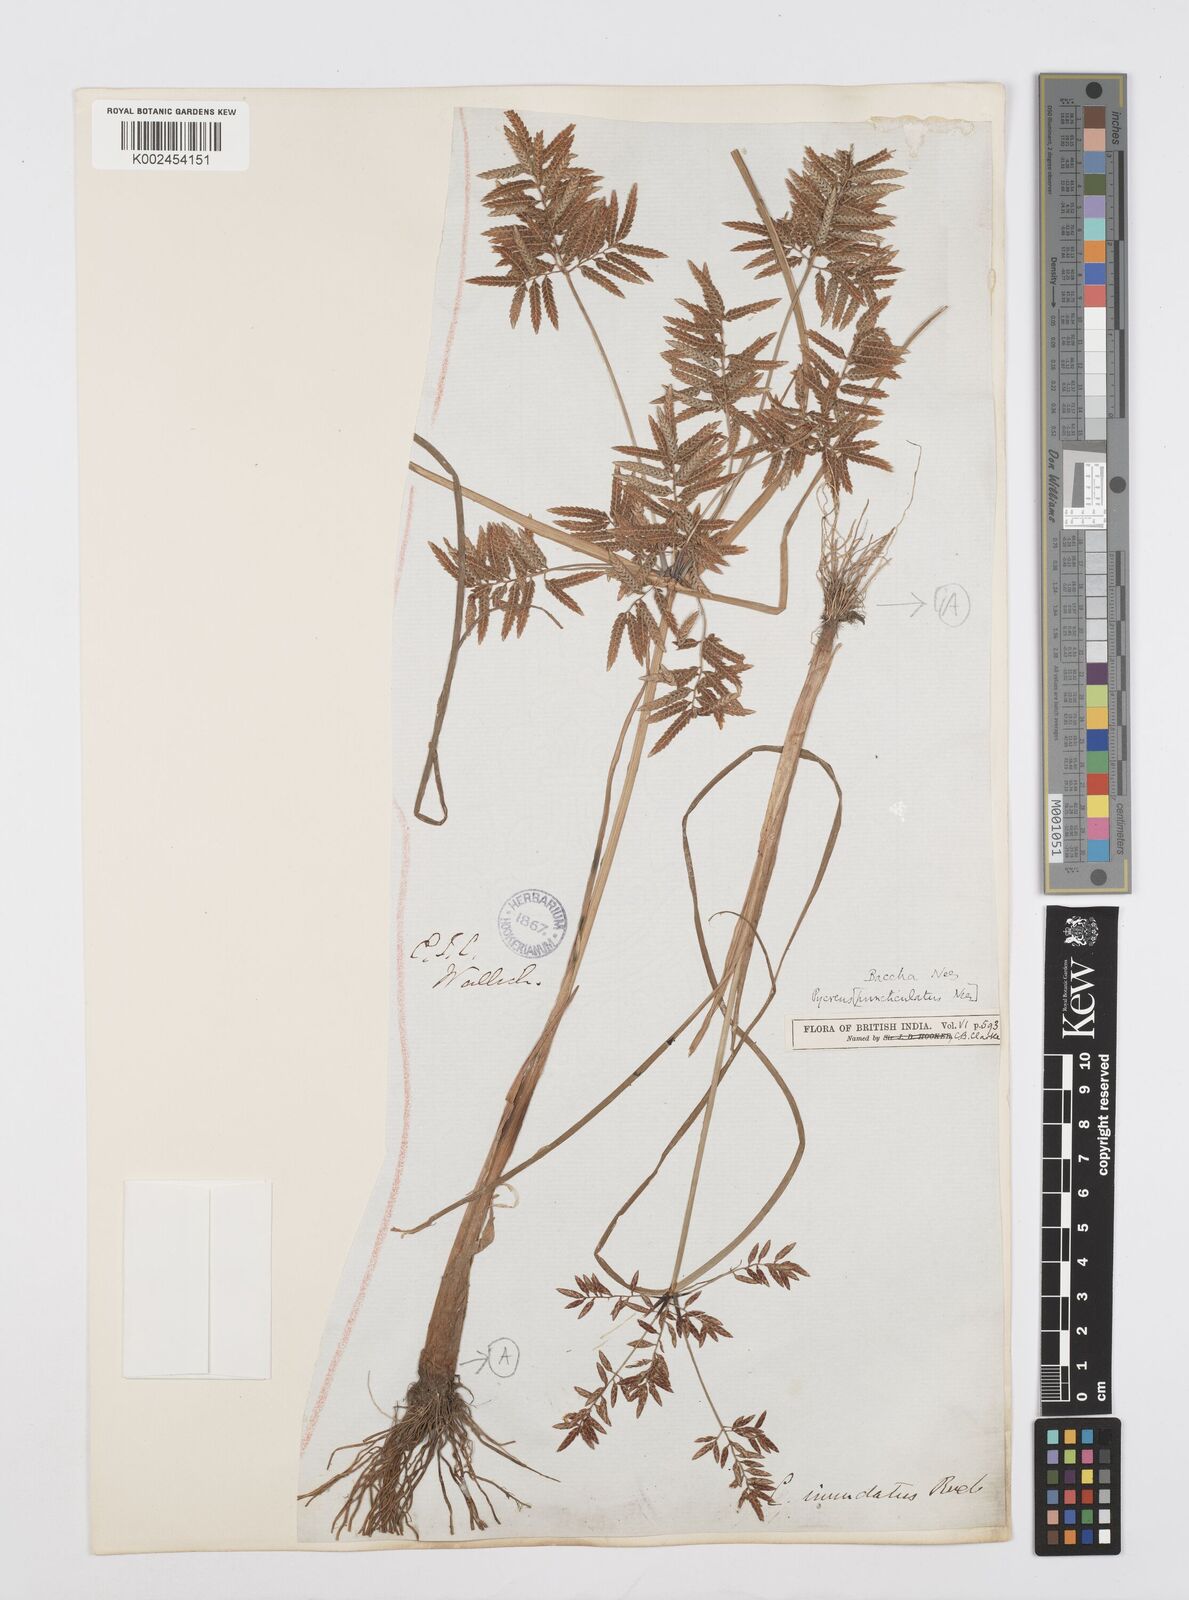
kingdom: Plantae
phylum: Tracheophyta
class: Liliopsida
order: Poales
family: Cyperaceae
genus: Cyperus
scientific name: Cyperus serotinus
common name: Tidalmarsh flatsedge
